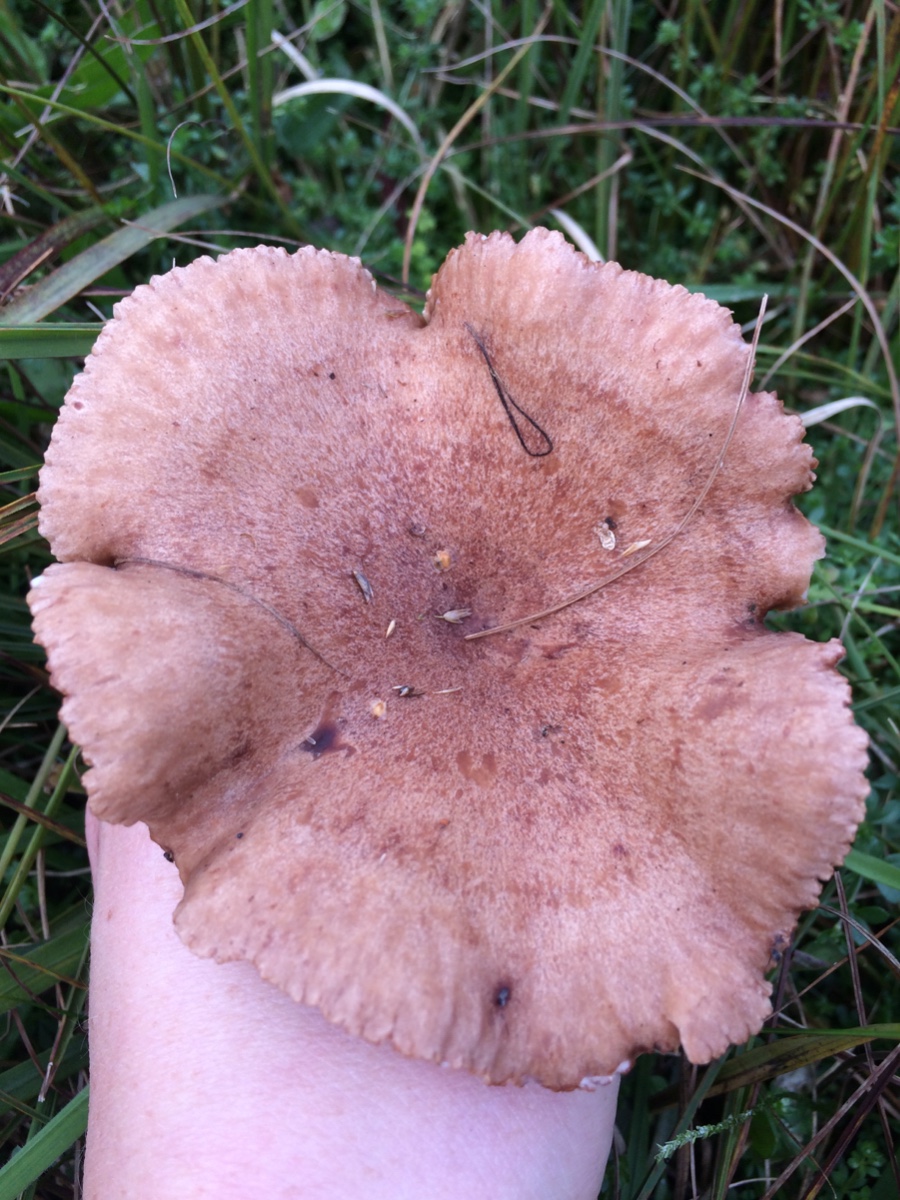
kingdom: Fungi
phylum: Basidiomycota
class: Agaricomycetes
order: Russulales
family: Russulaceae
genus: Lactarius
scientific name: Lactarius quietus
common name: ege-mælkehat
